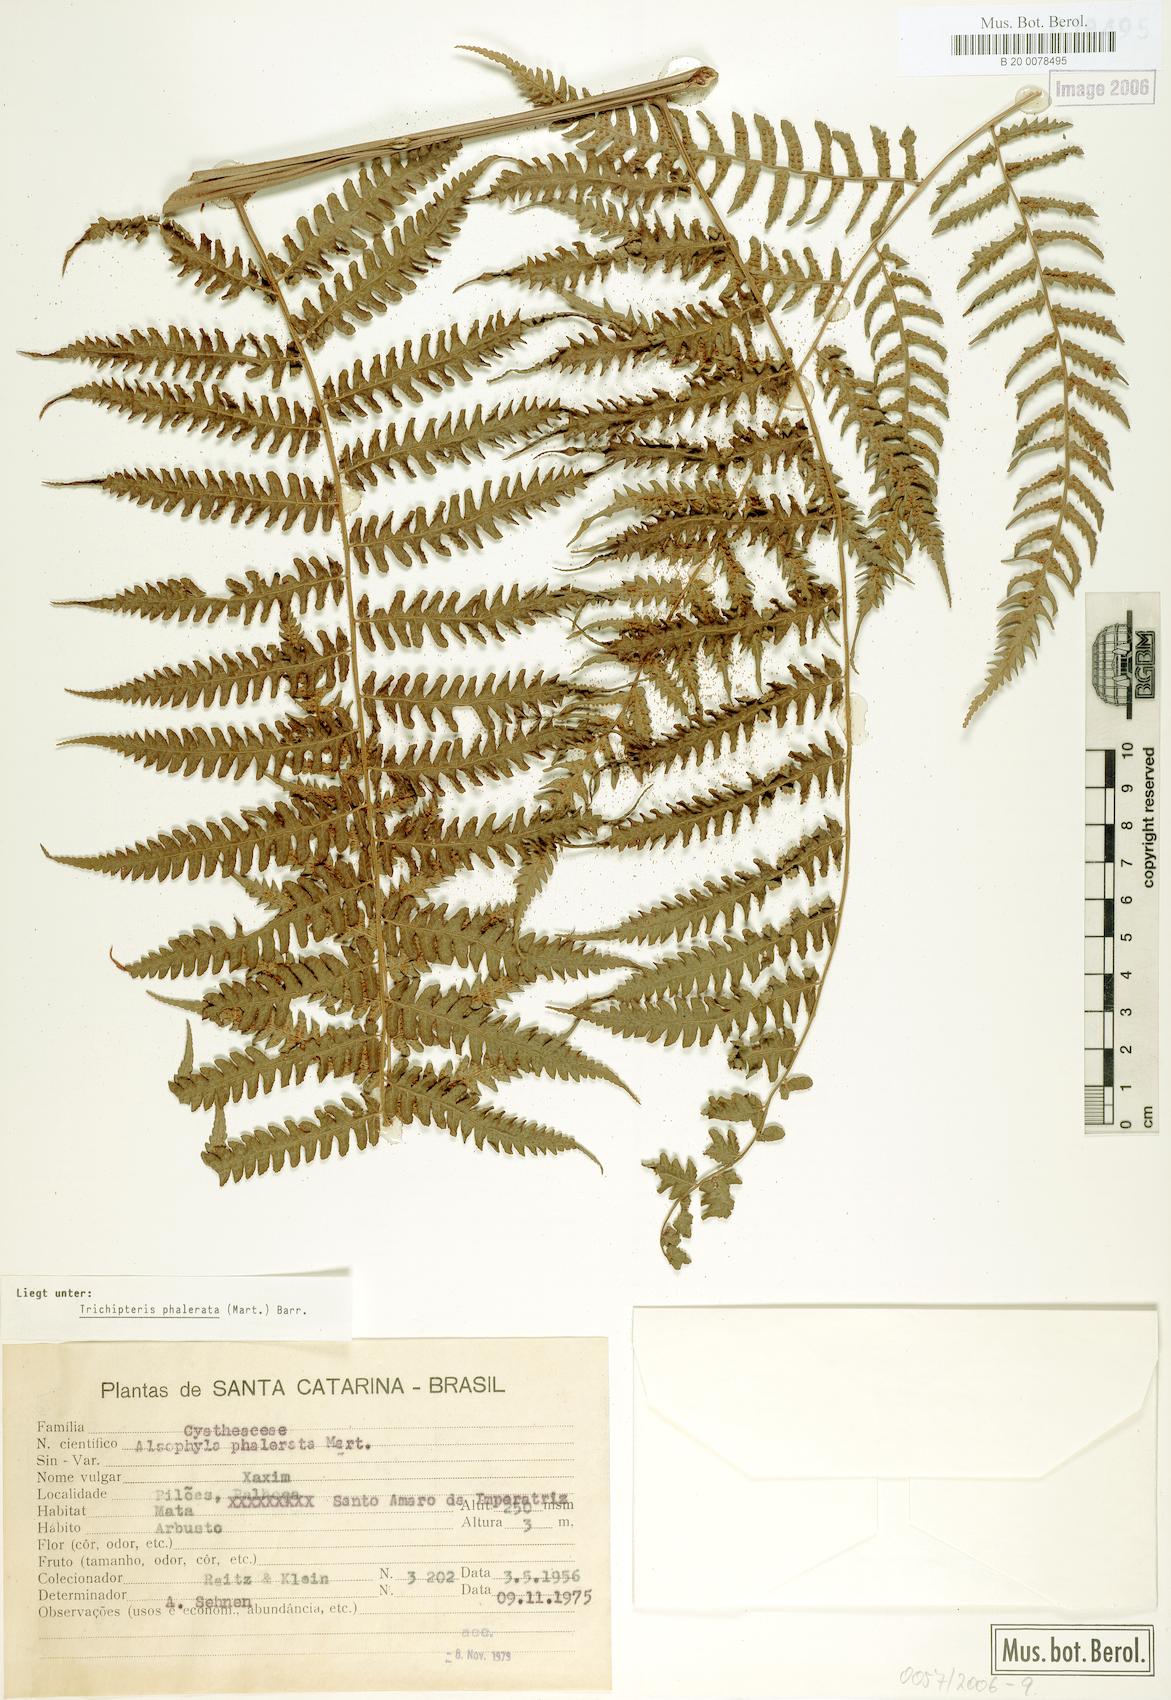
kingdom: Plantae
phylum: Tracheophyta
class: Polypodiopsida
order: Cyatheales
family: Cyatheaceae
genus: Cyathea
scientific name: Cyathea phalerata
